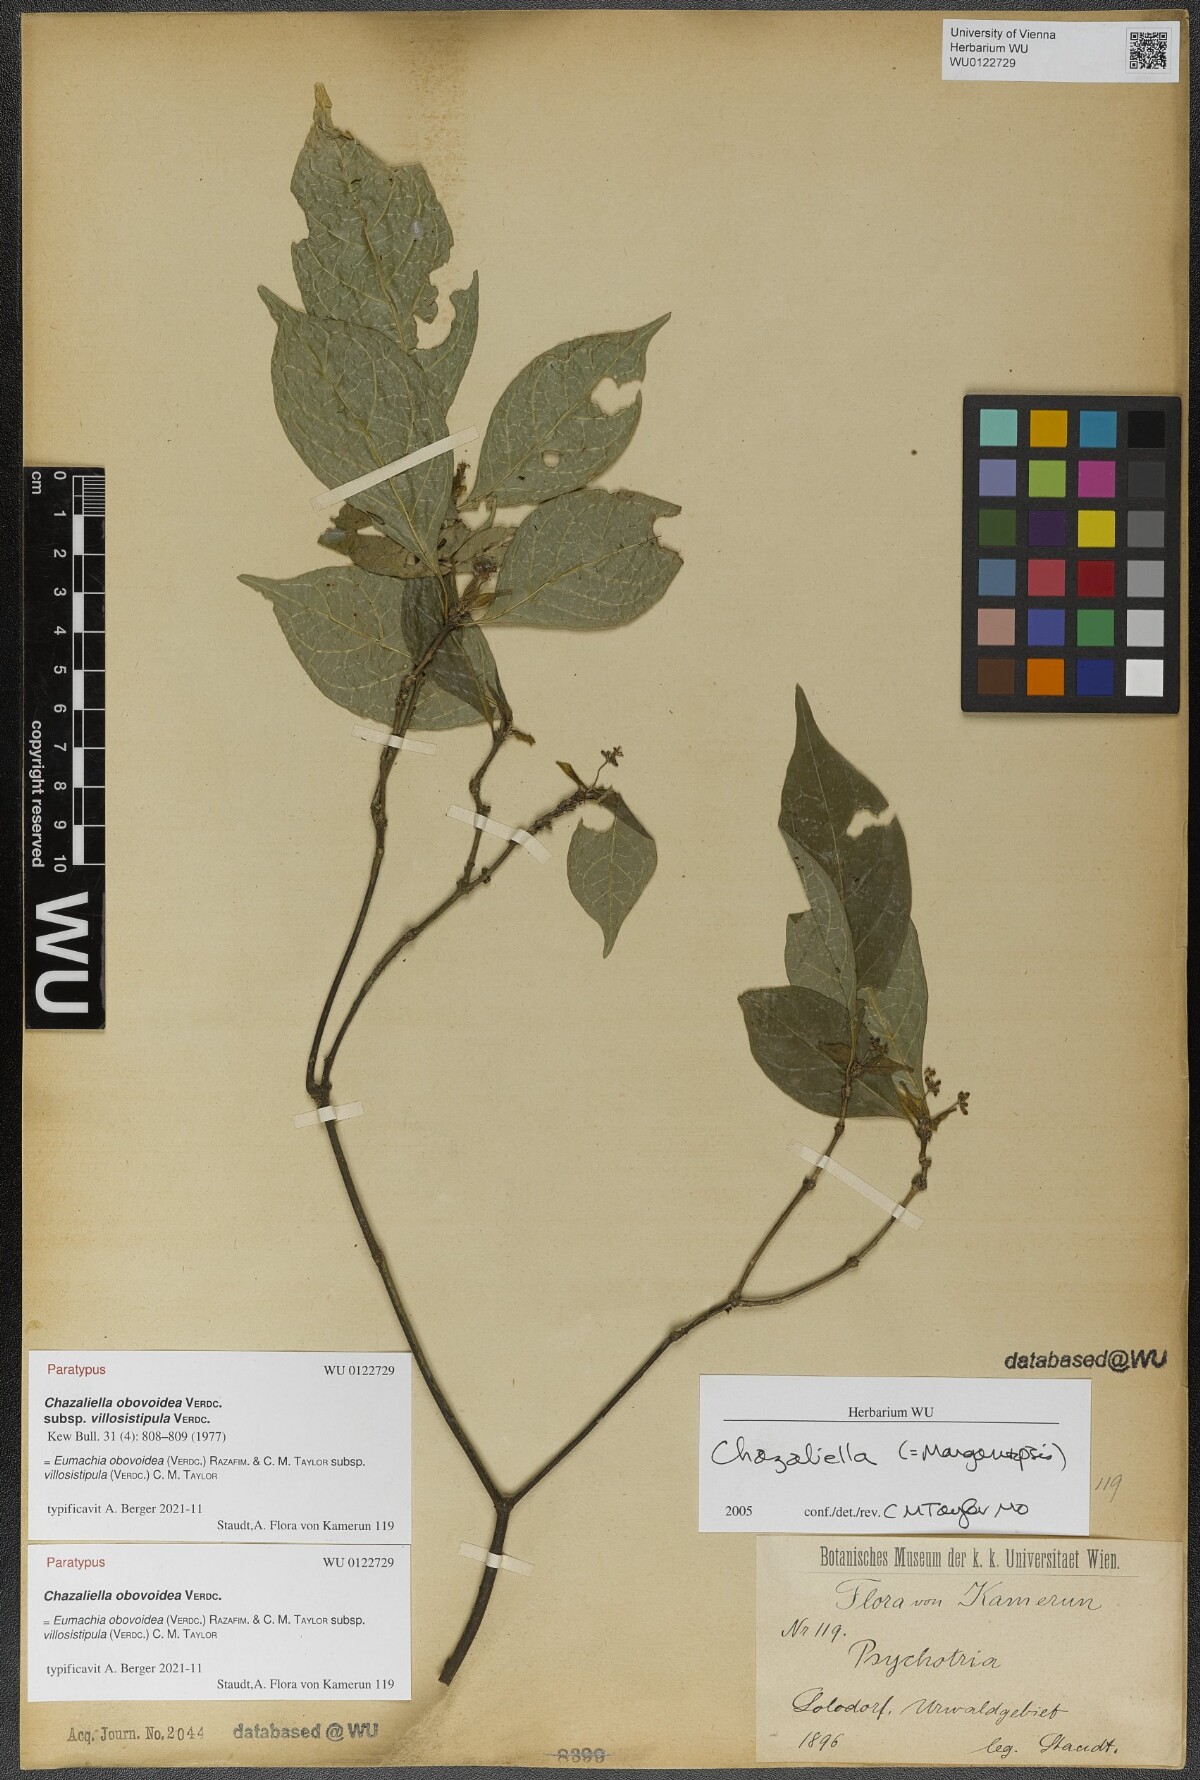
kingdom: Plantae
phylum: Tracheophyta
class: Magnoliopsida
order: Gentianales
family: Rubiaceae
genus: Eumachia
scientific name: Eumachia obovoidea
